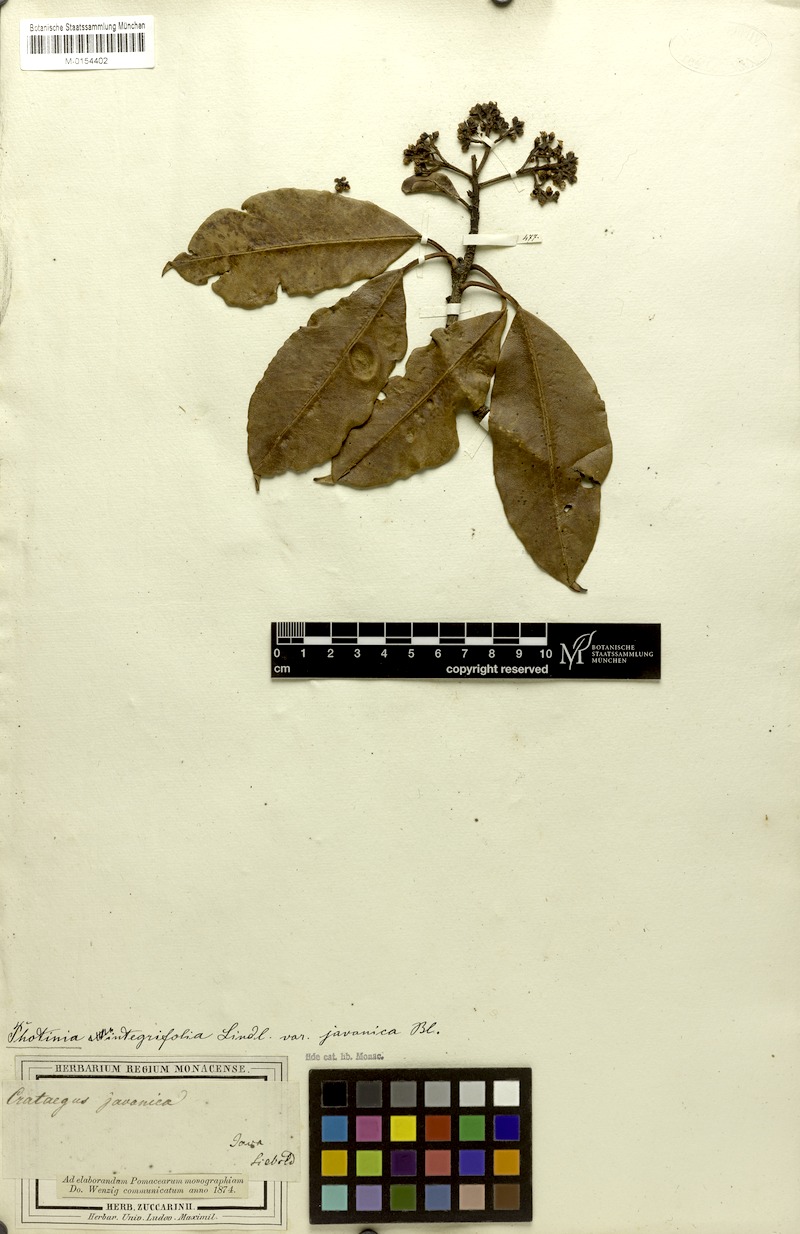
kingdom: Plantae
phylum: Tracheophyta
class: Magnoliopsida
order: Rosales
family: Rosaceae
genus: Photinia
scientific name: Photinia integrifolia
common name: Himalayan chokeberry
